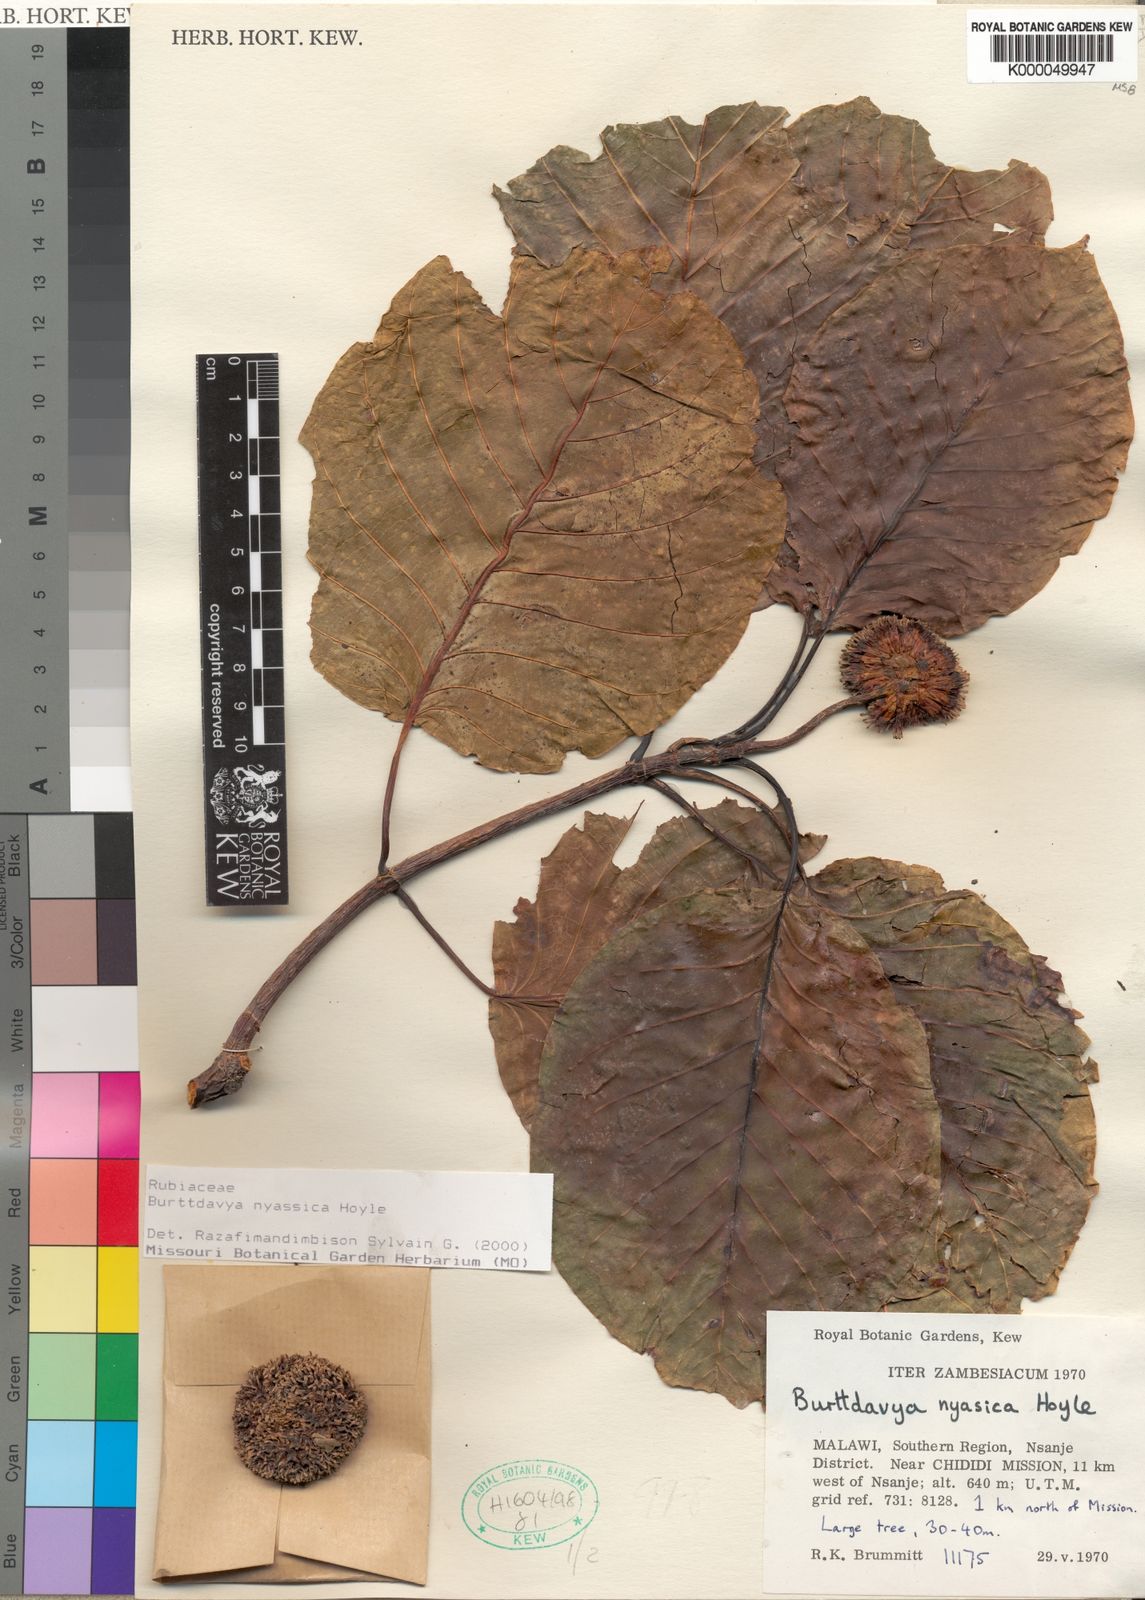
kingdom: Plantae
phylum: Tracheophyta
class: Magnoliopsida
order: Gentianales
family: Rubiaceae
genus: Nauclea
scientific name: Nauclea
